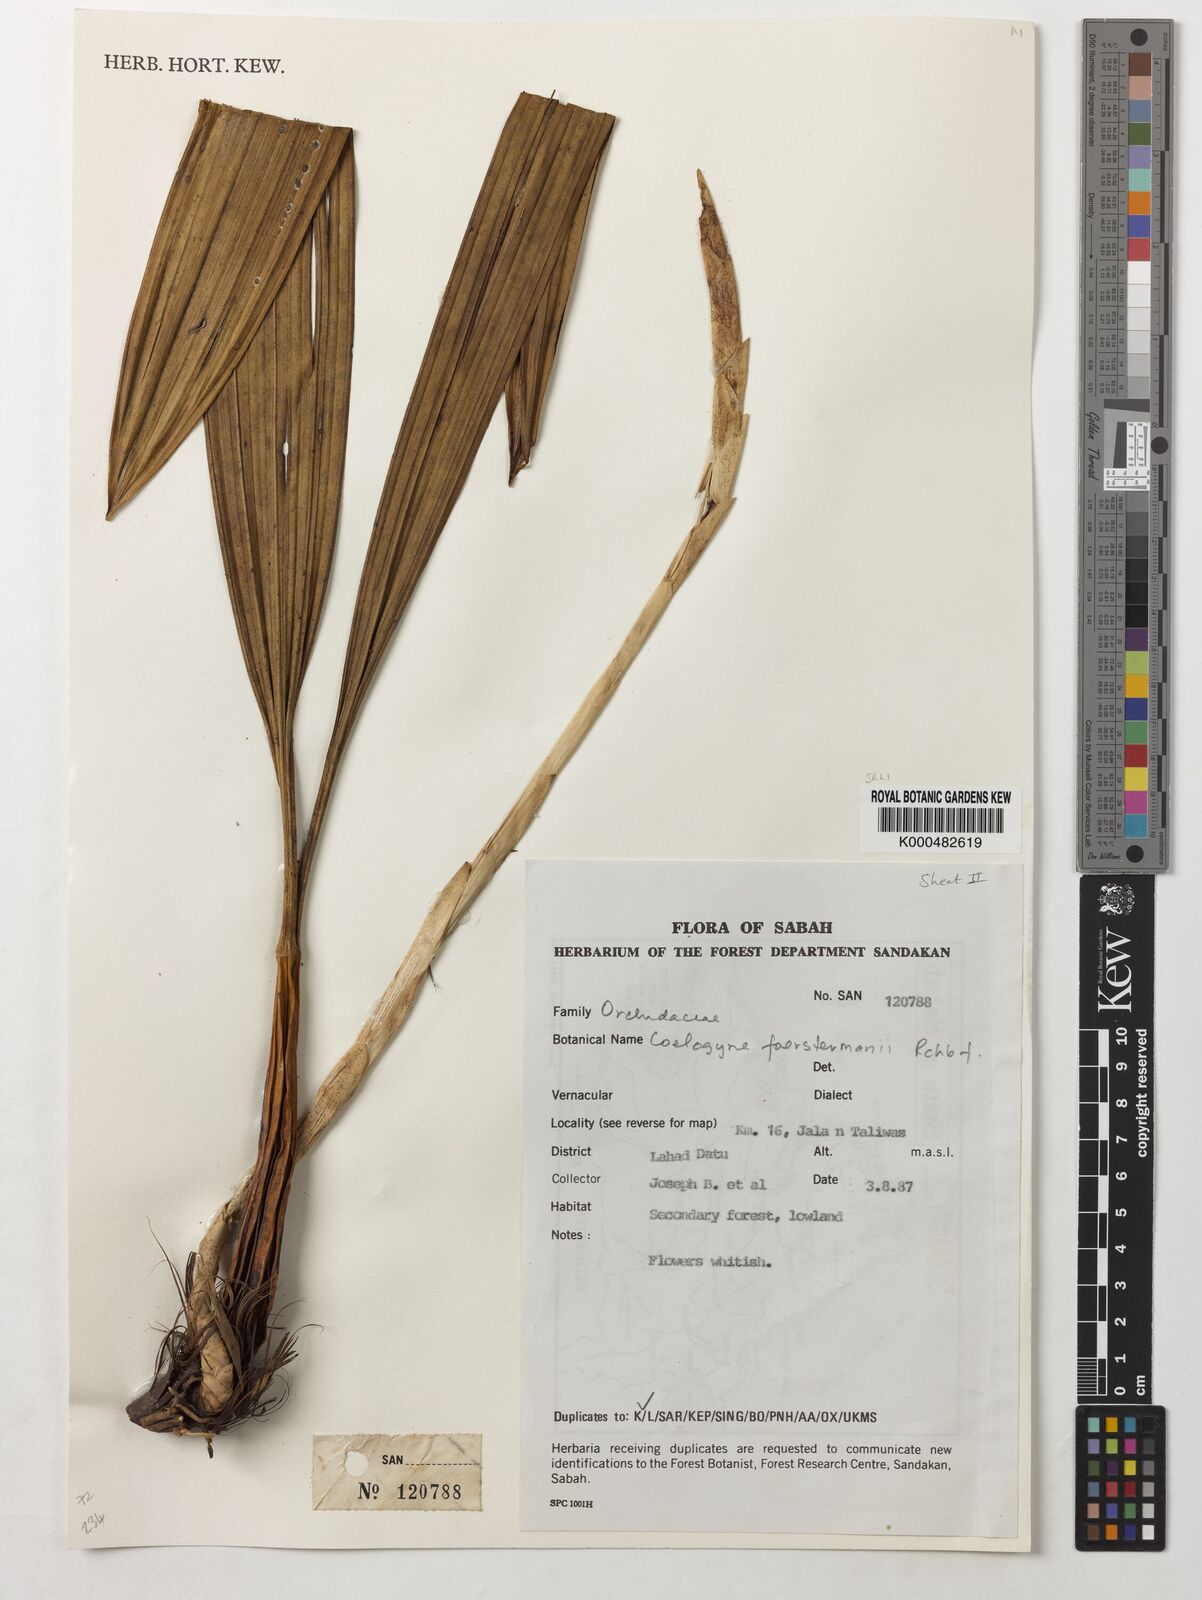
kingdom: Plantae
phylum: Tracheophyta
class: Liliopsida
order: Asparagales
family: Orchidaceae
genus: Coelogyne
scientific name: Coelogyne
